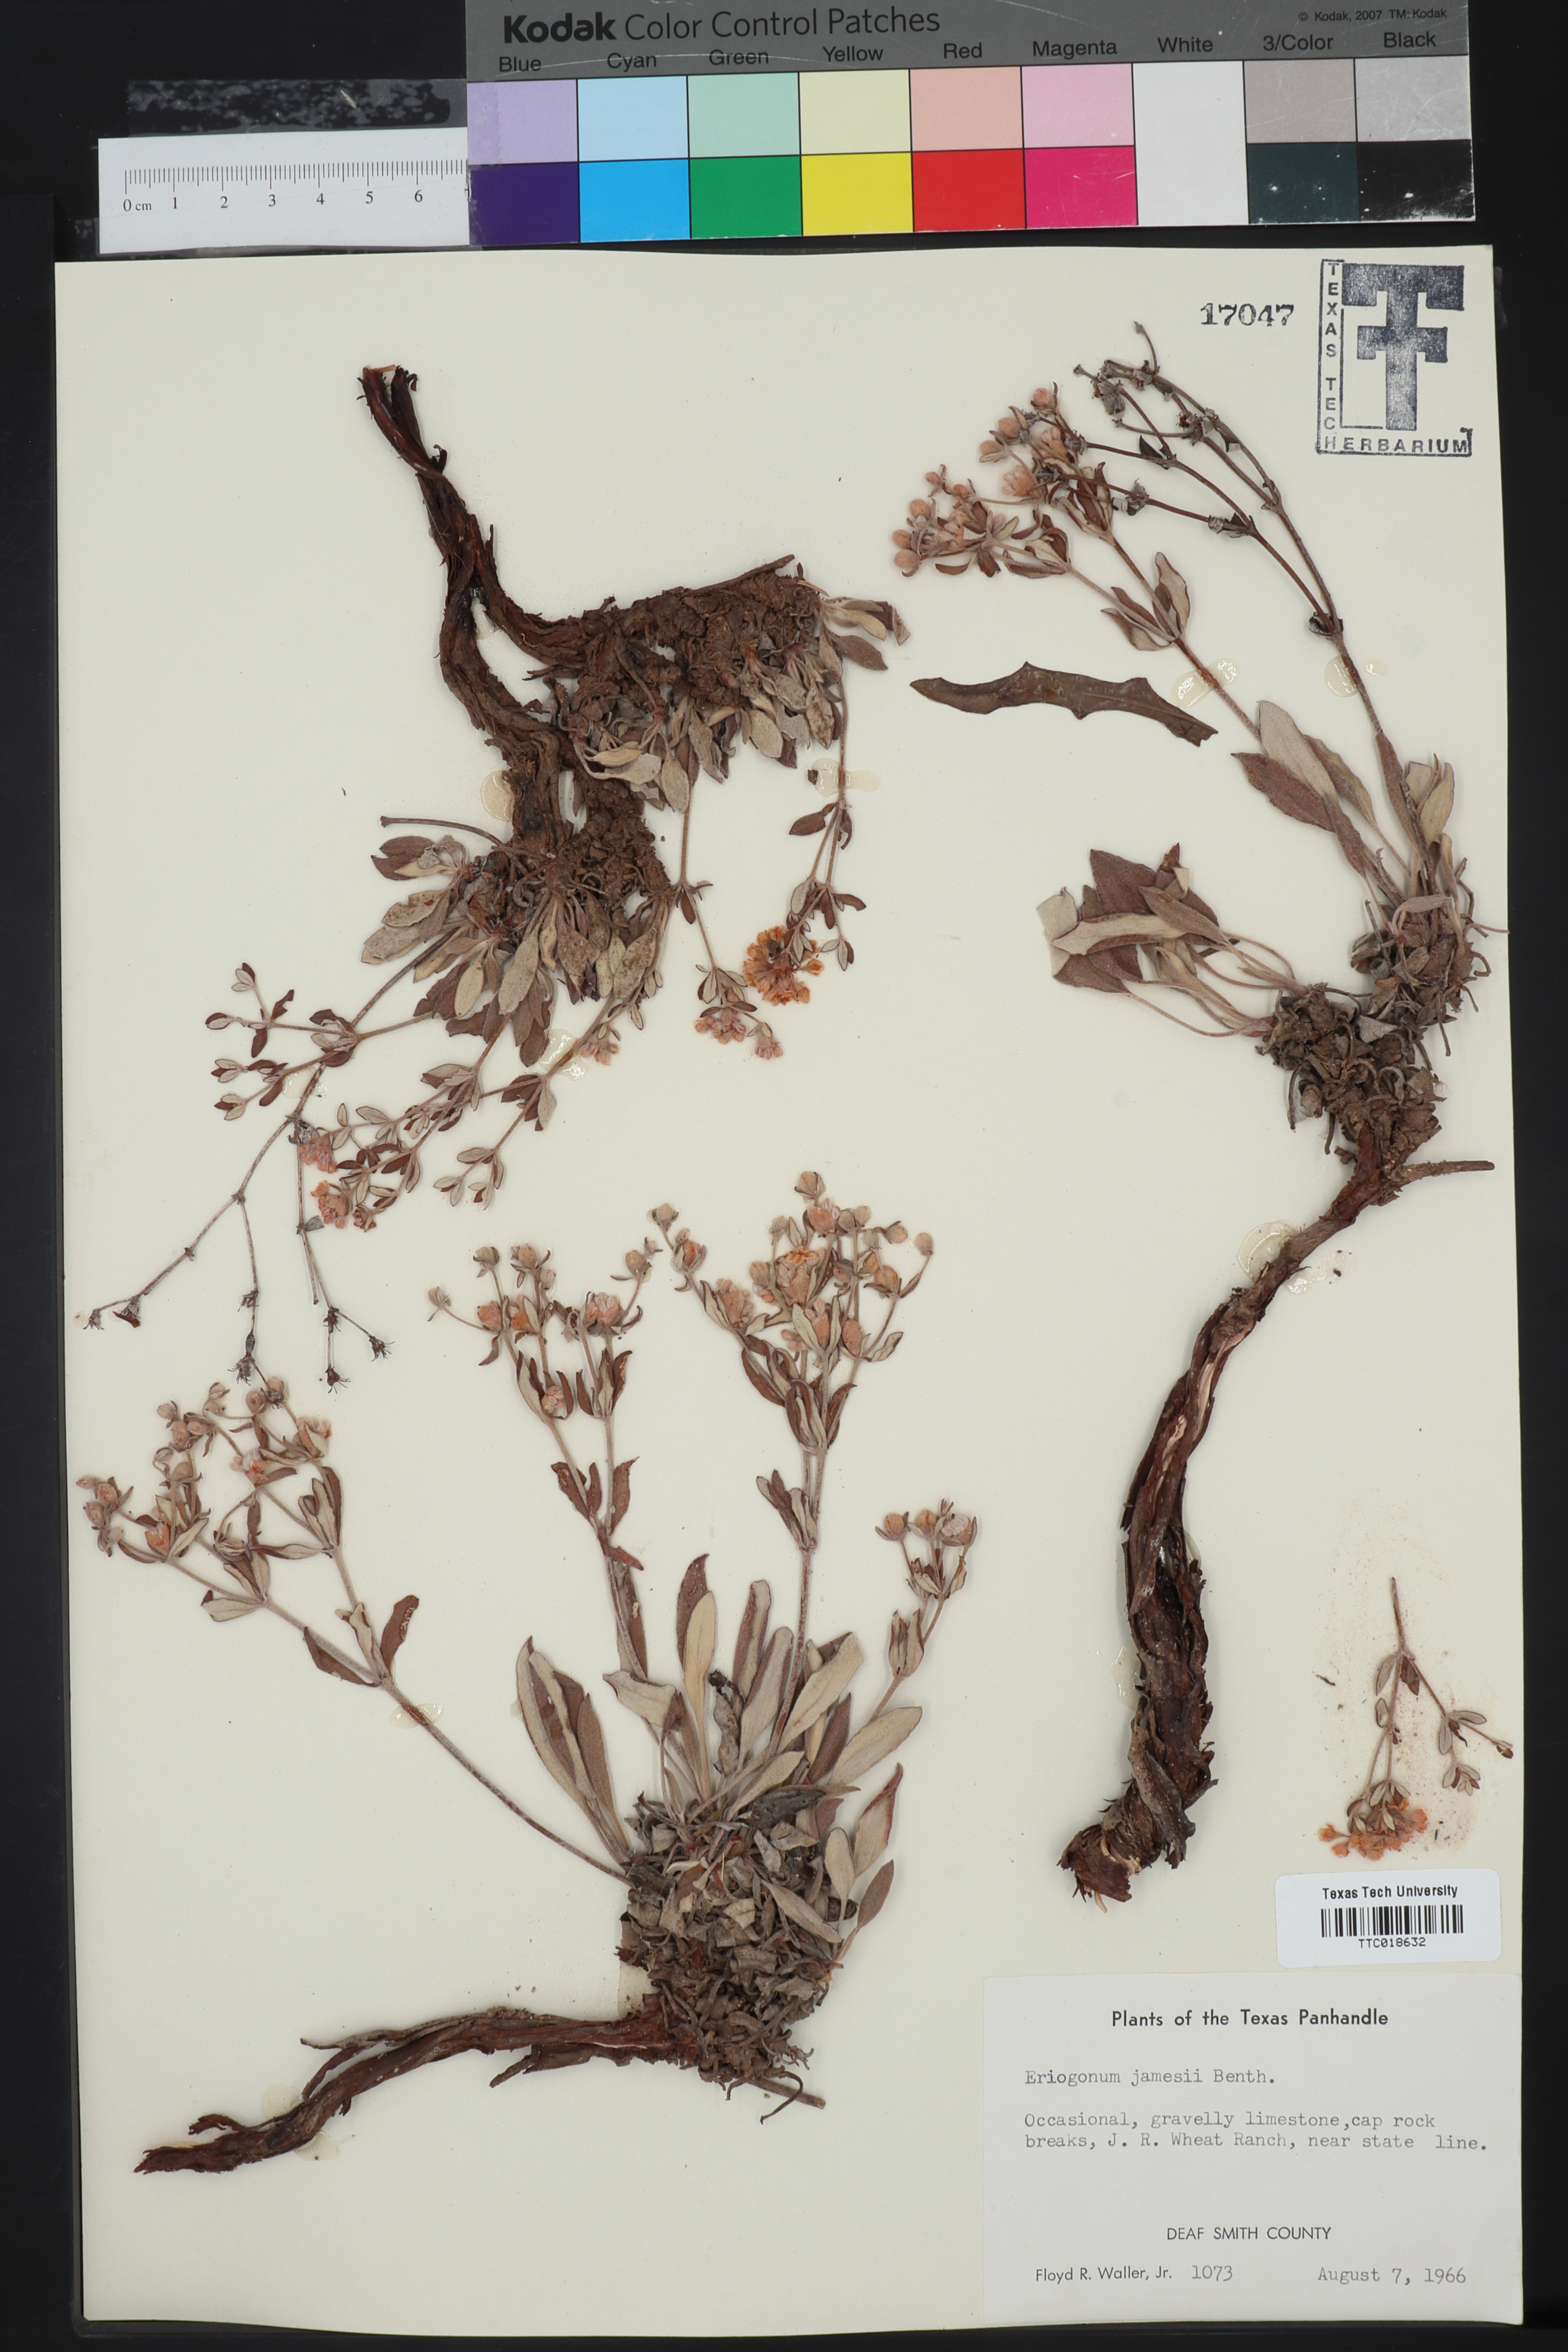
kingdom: Plantae
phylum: Tracheophyta
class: Magnoliopsida
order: Caryophyllales
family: Polygonaceae
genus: Eriogonum
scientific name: Eriogonum jamesii
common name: Antelope-sage
